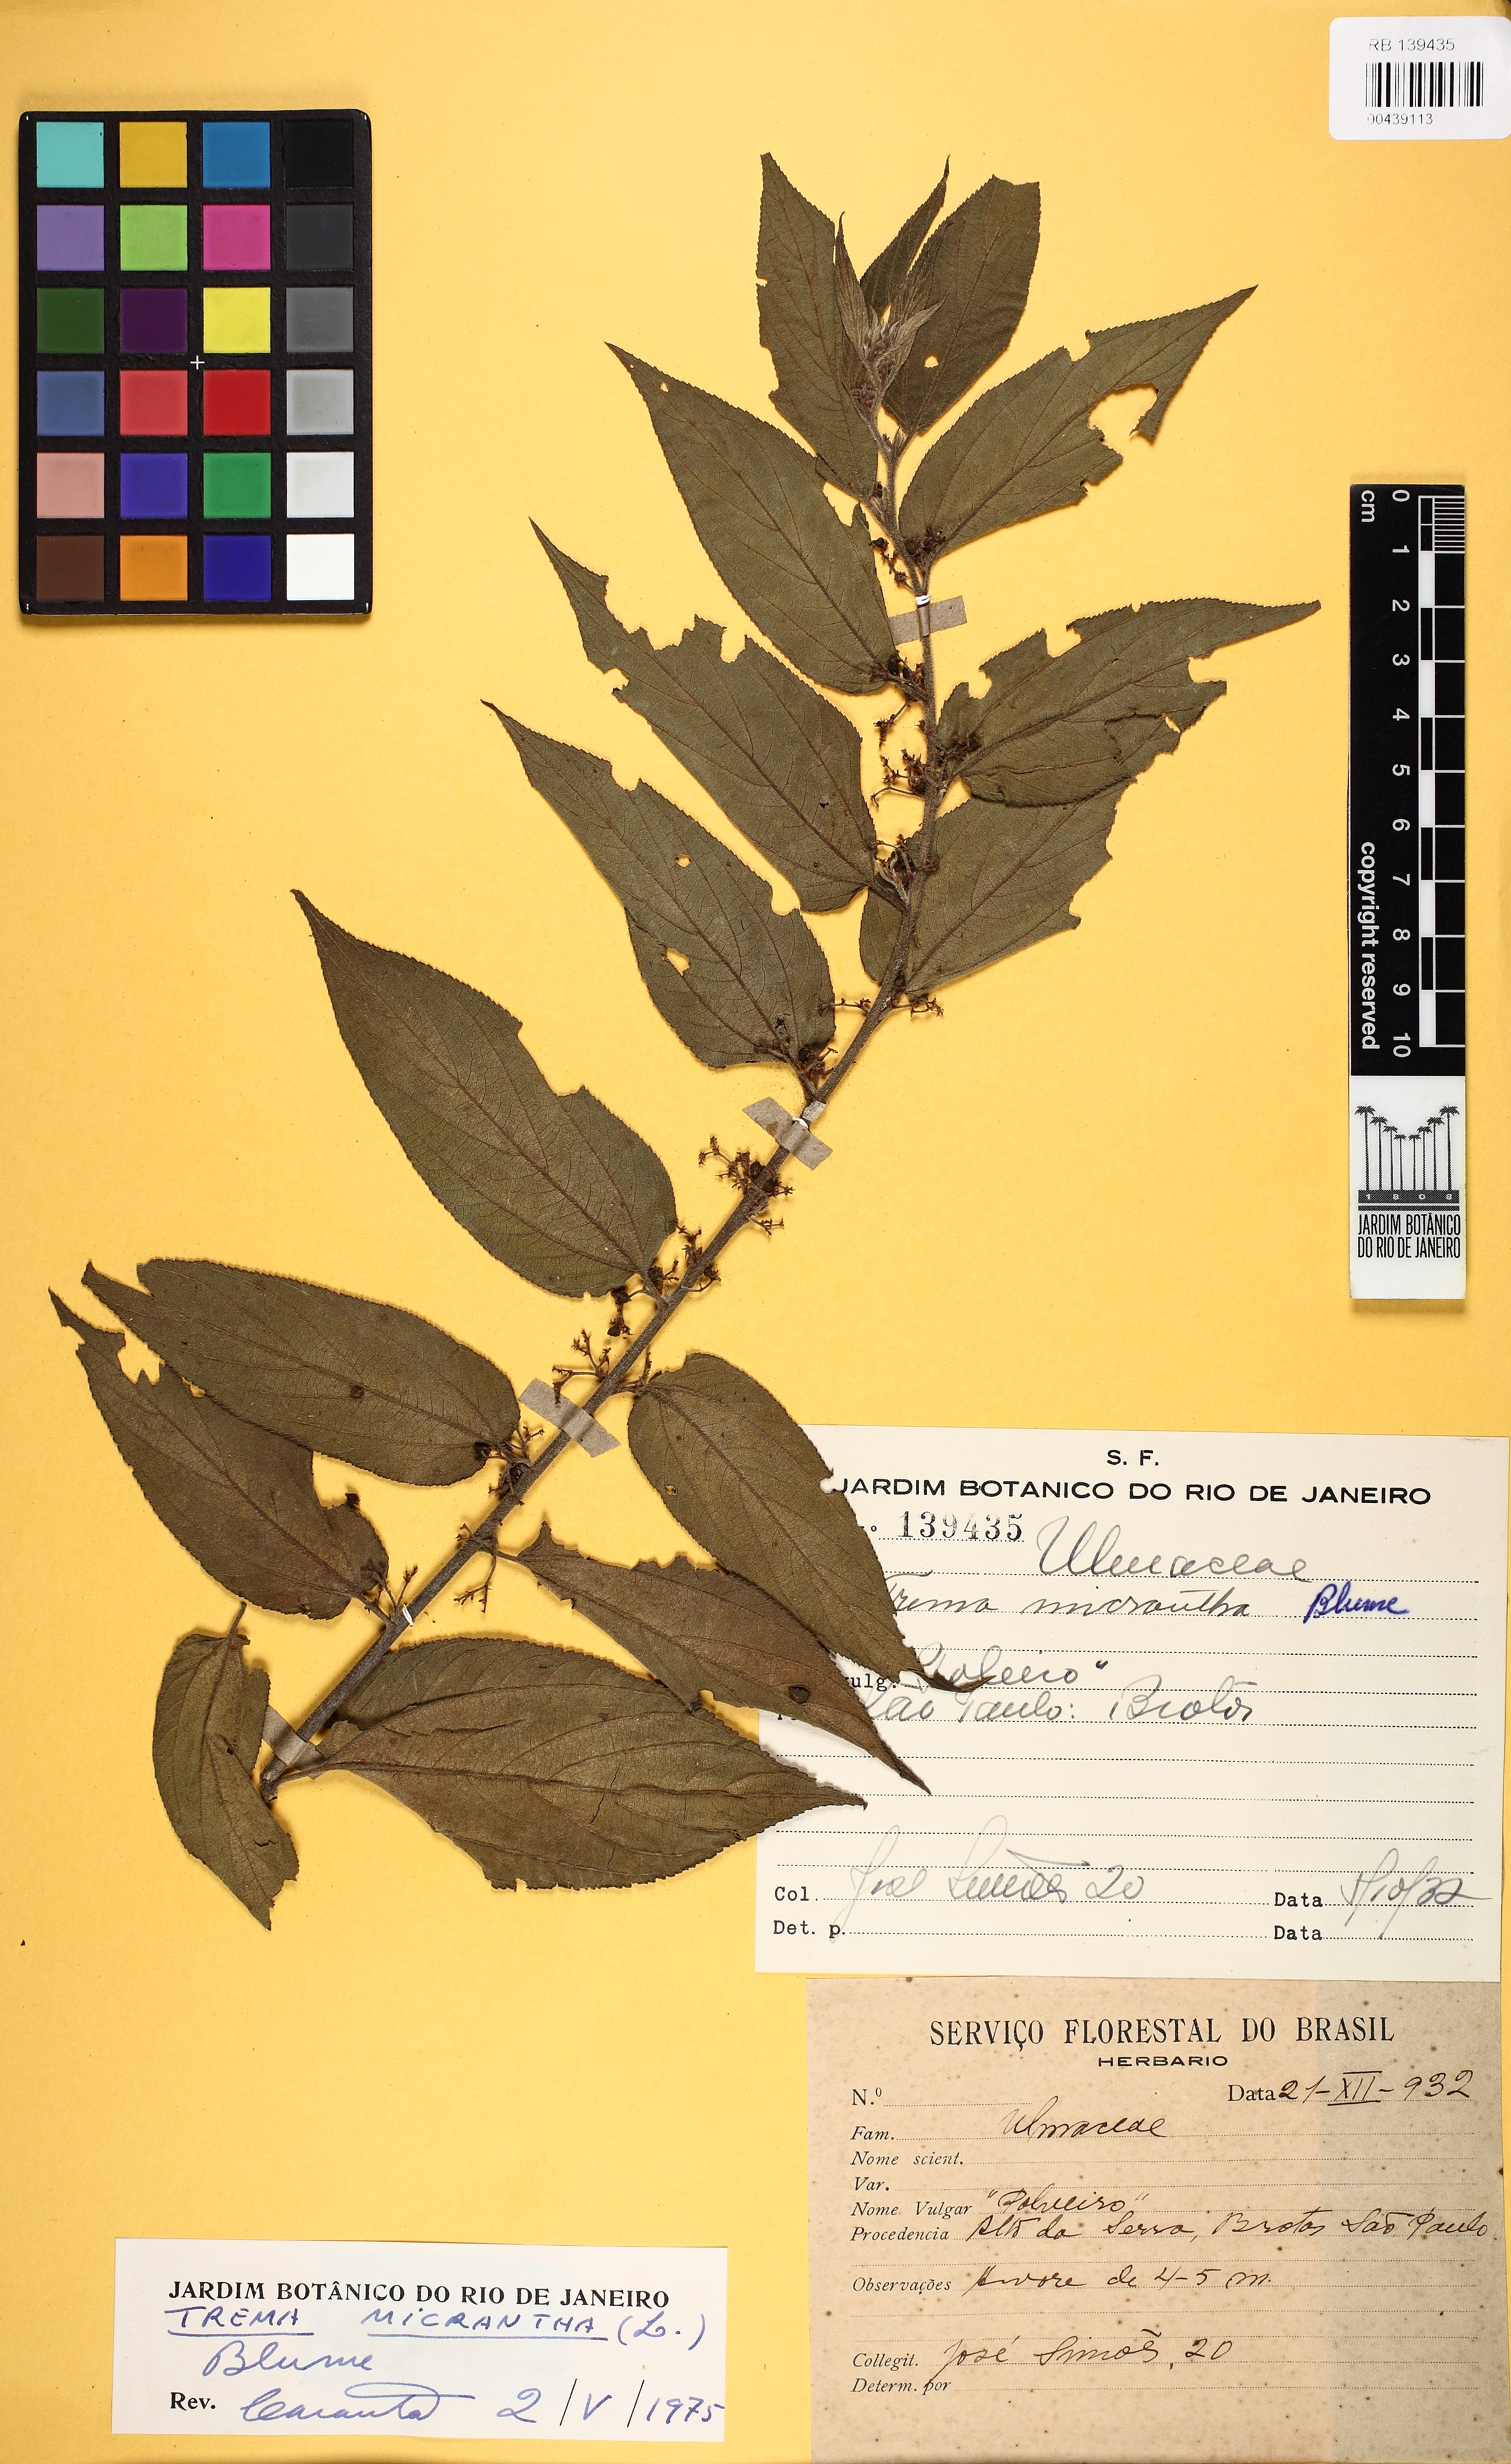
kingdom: Plantae
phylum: Tracheophyta
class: Magnoliopsida
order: Rosales
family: Cannabaceae
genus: Trema
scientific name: Trema micranthum
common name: Jamaican nettletree
